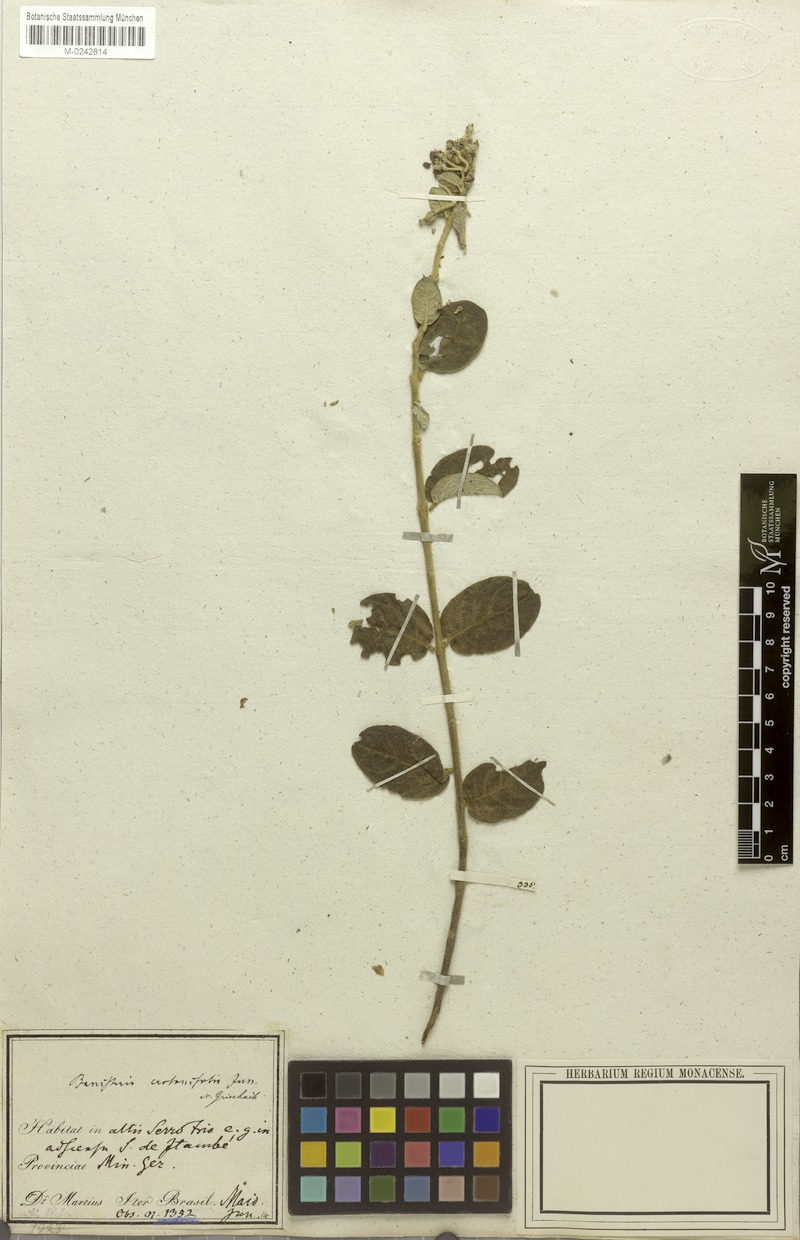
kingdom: Plantae
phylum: Tracheophyta
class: Magnoliopsida
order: Malpighiales
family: Malpighiaceae
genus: Banisteriopsis
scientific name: Banisteriopsis malifolia
